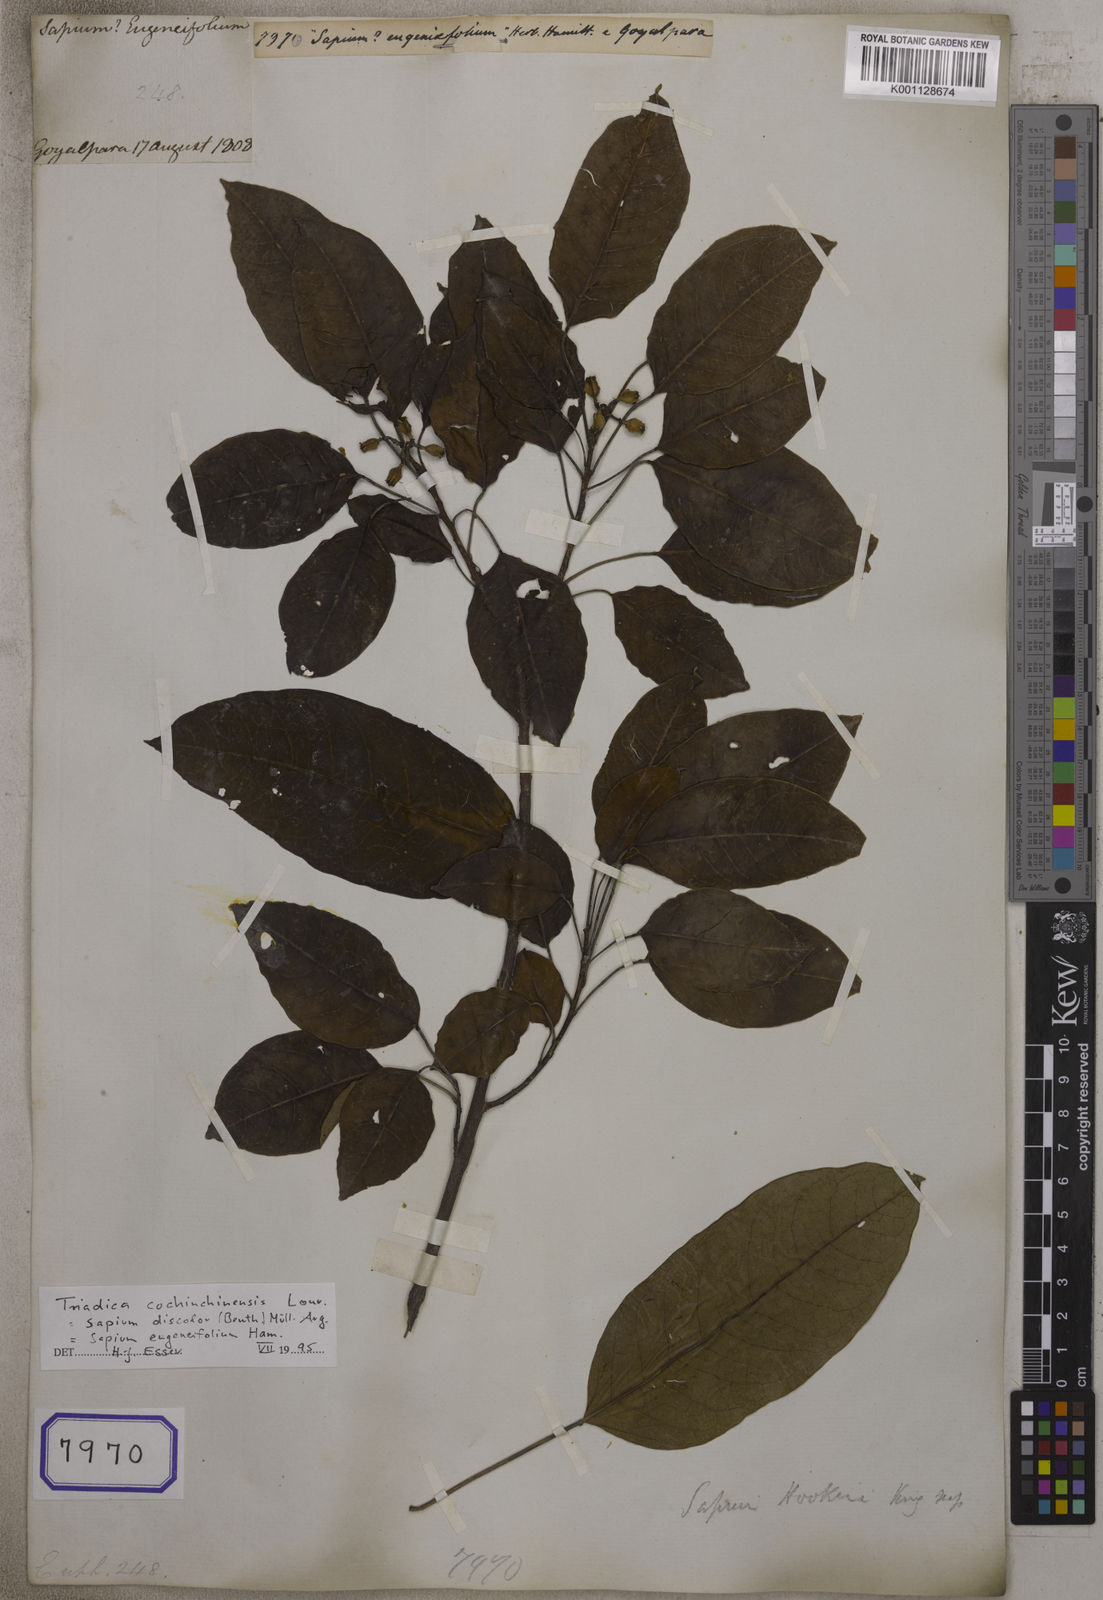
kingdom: Plantae
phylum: Tracheophyta
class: Magnoliopsida
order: Malpighiales
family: Euphorbiaceae
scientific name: Euphorbiaceae
